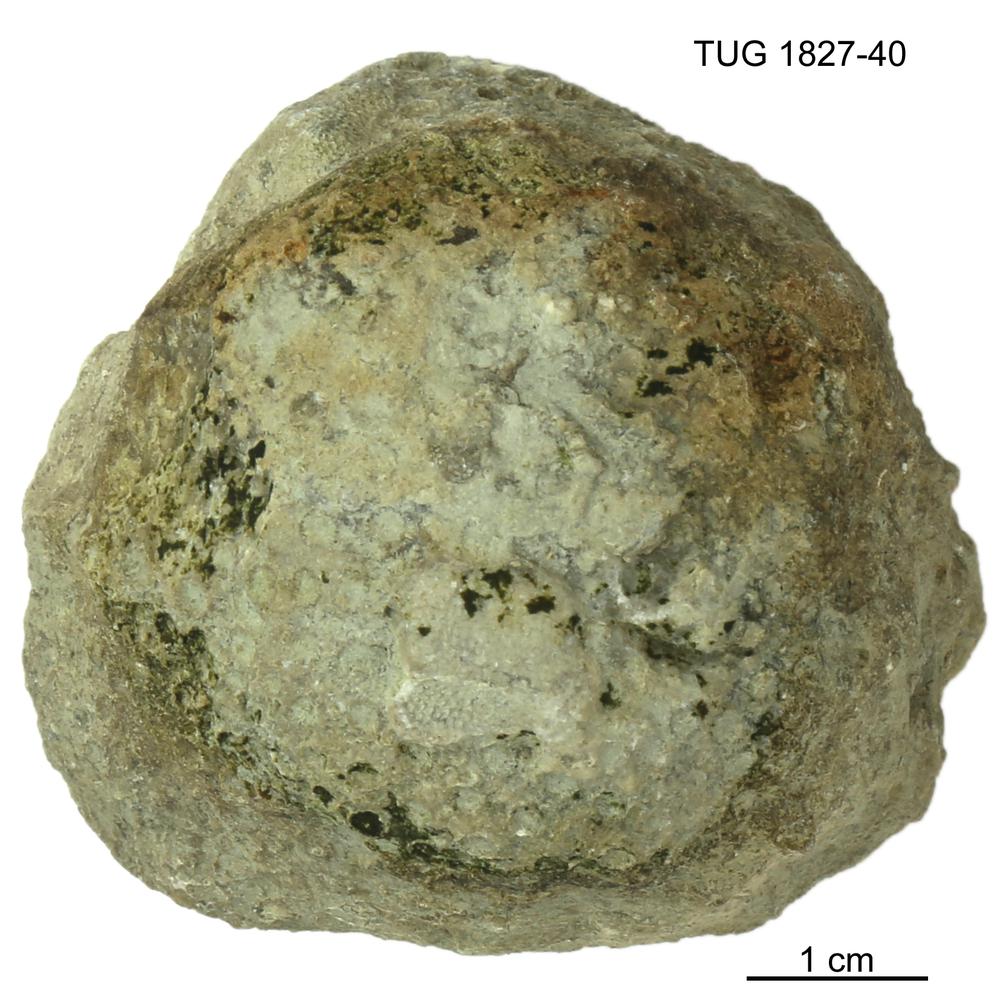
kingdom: Animalia
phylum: Xenacoelomorpha
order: Acoela
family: Proporidae
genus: Propora
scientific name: Propora
